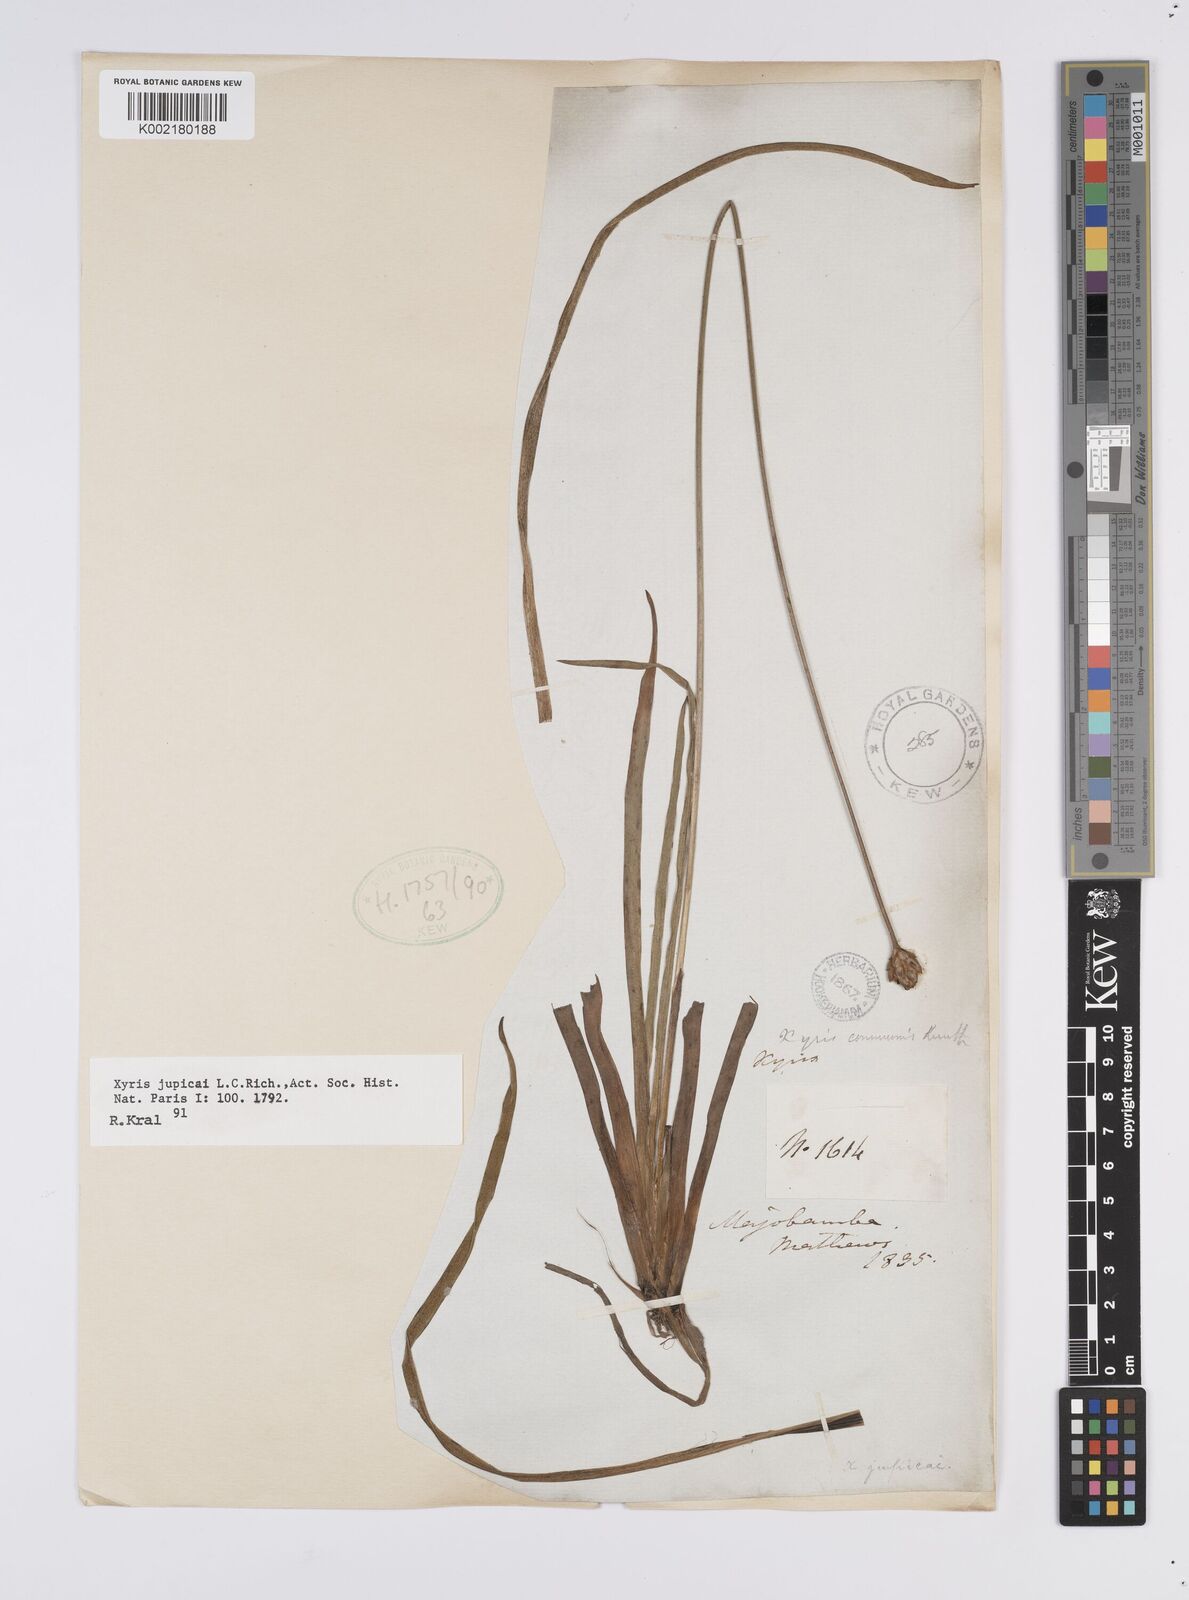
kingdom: Plantae
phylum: Tracheophyta
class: Liliopsida
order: Poales
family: Xyridaceae
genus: Xyris
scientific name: Xyris jupicai
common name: Richard's yelloweyed grass
